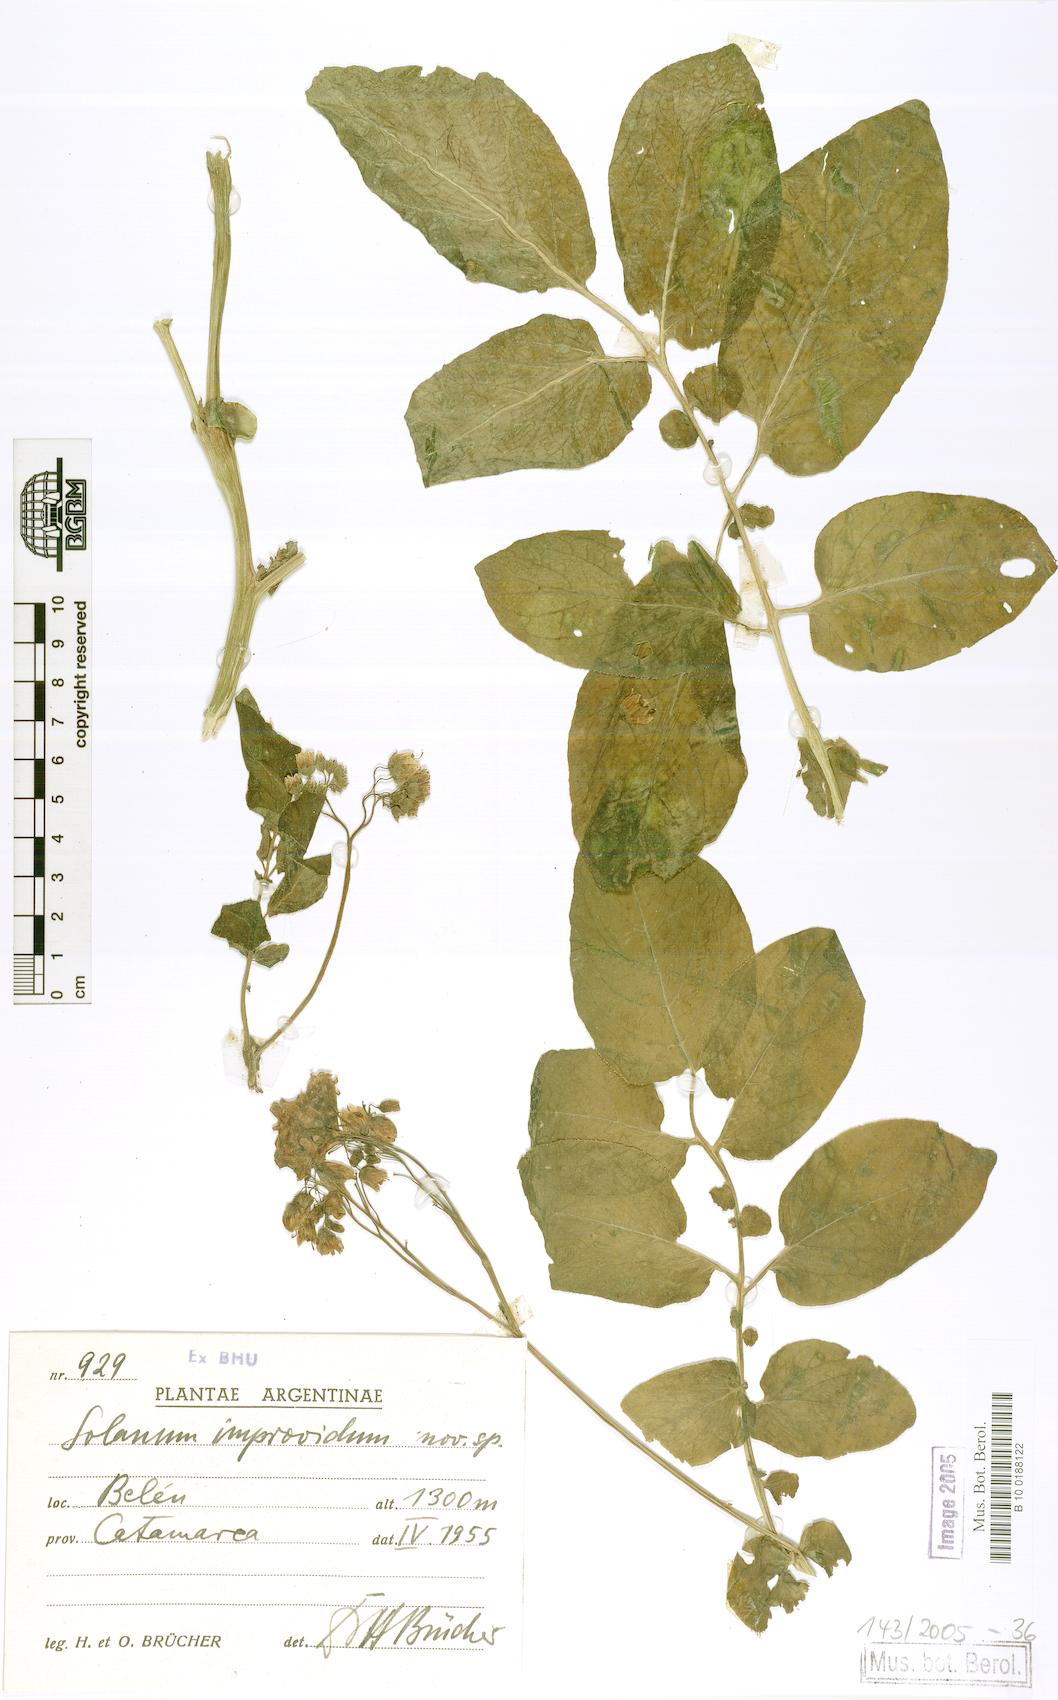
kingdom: Plantae
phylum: Tracheophyta
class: Magnoliopsida
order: Solanales
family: Solanaceae
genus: Solanum
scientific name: Solanum kurtzianum
